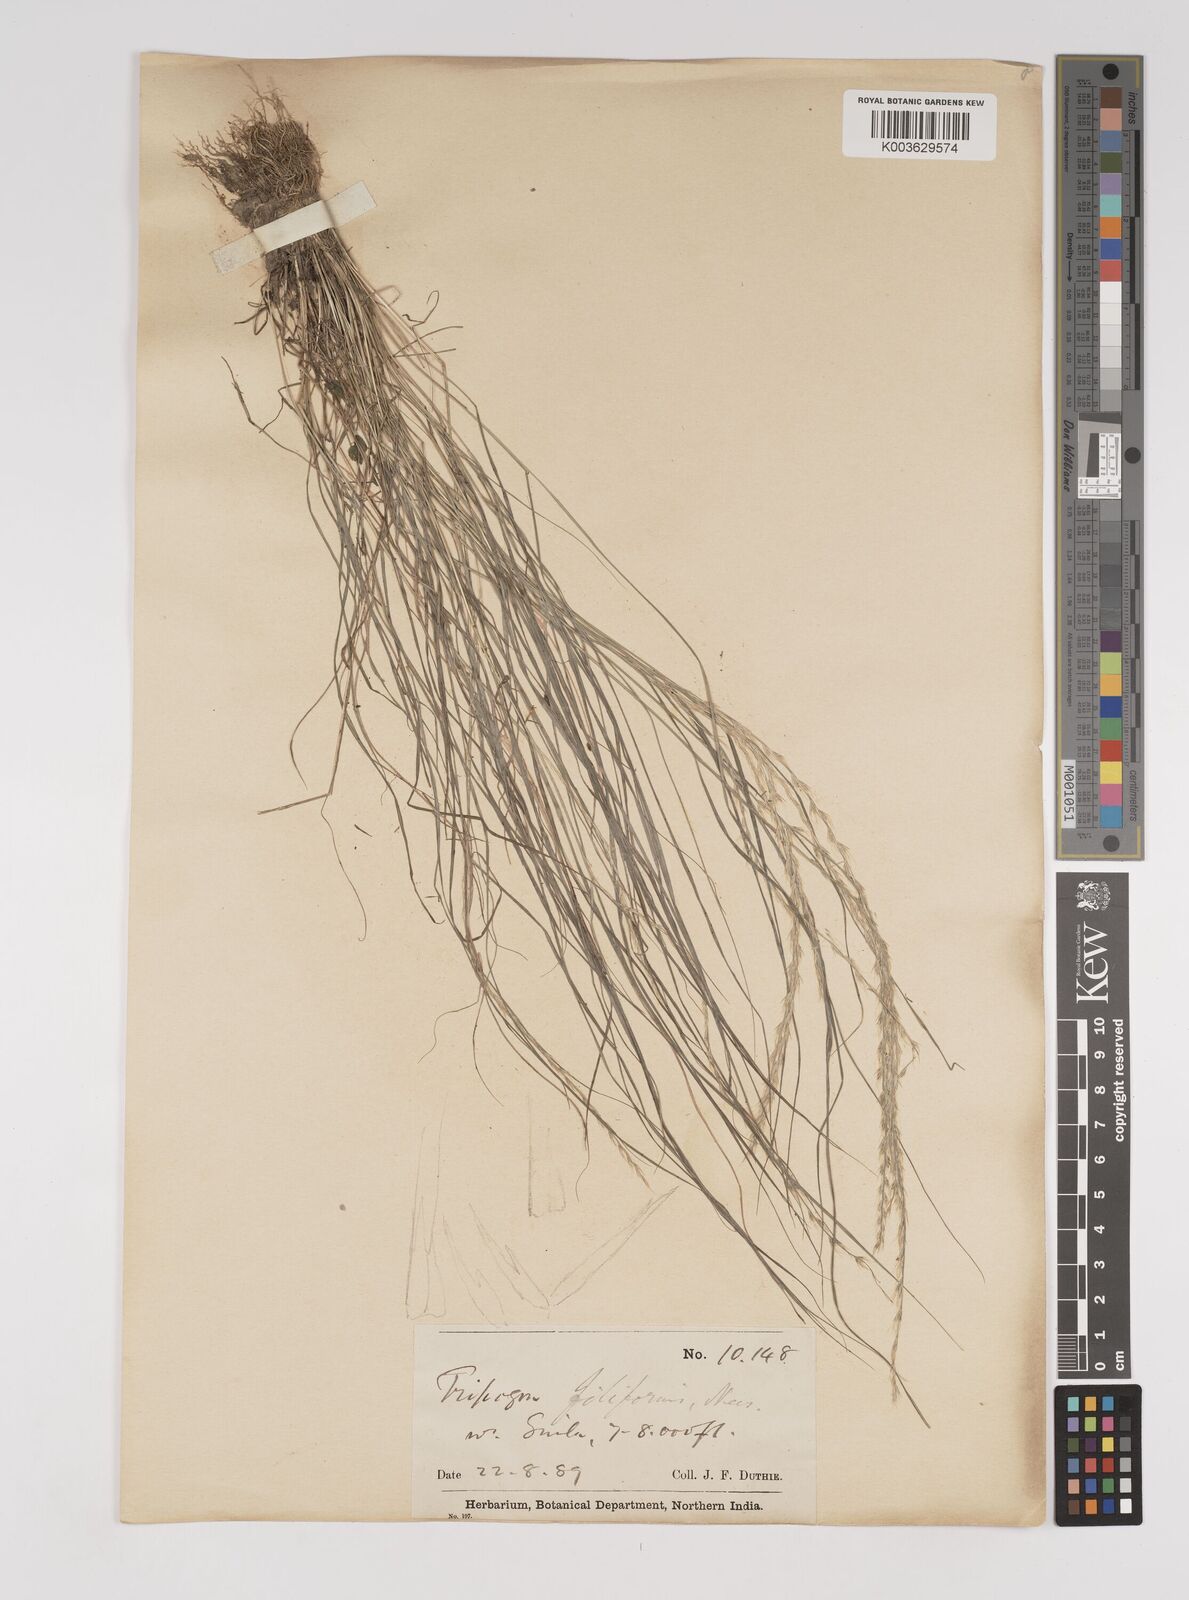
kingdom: Plantae
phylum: Tracheophyta
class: Liliopsida
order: Poales
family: Poaceae
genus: Tripogon
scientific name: Tripogon filiformis
